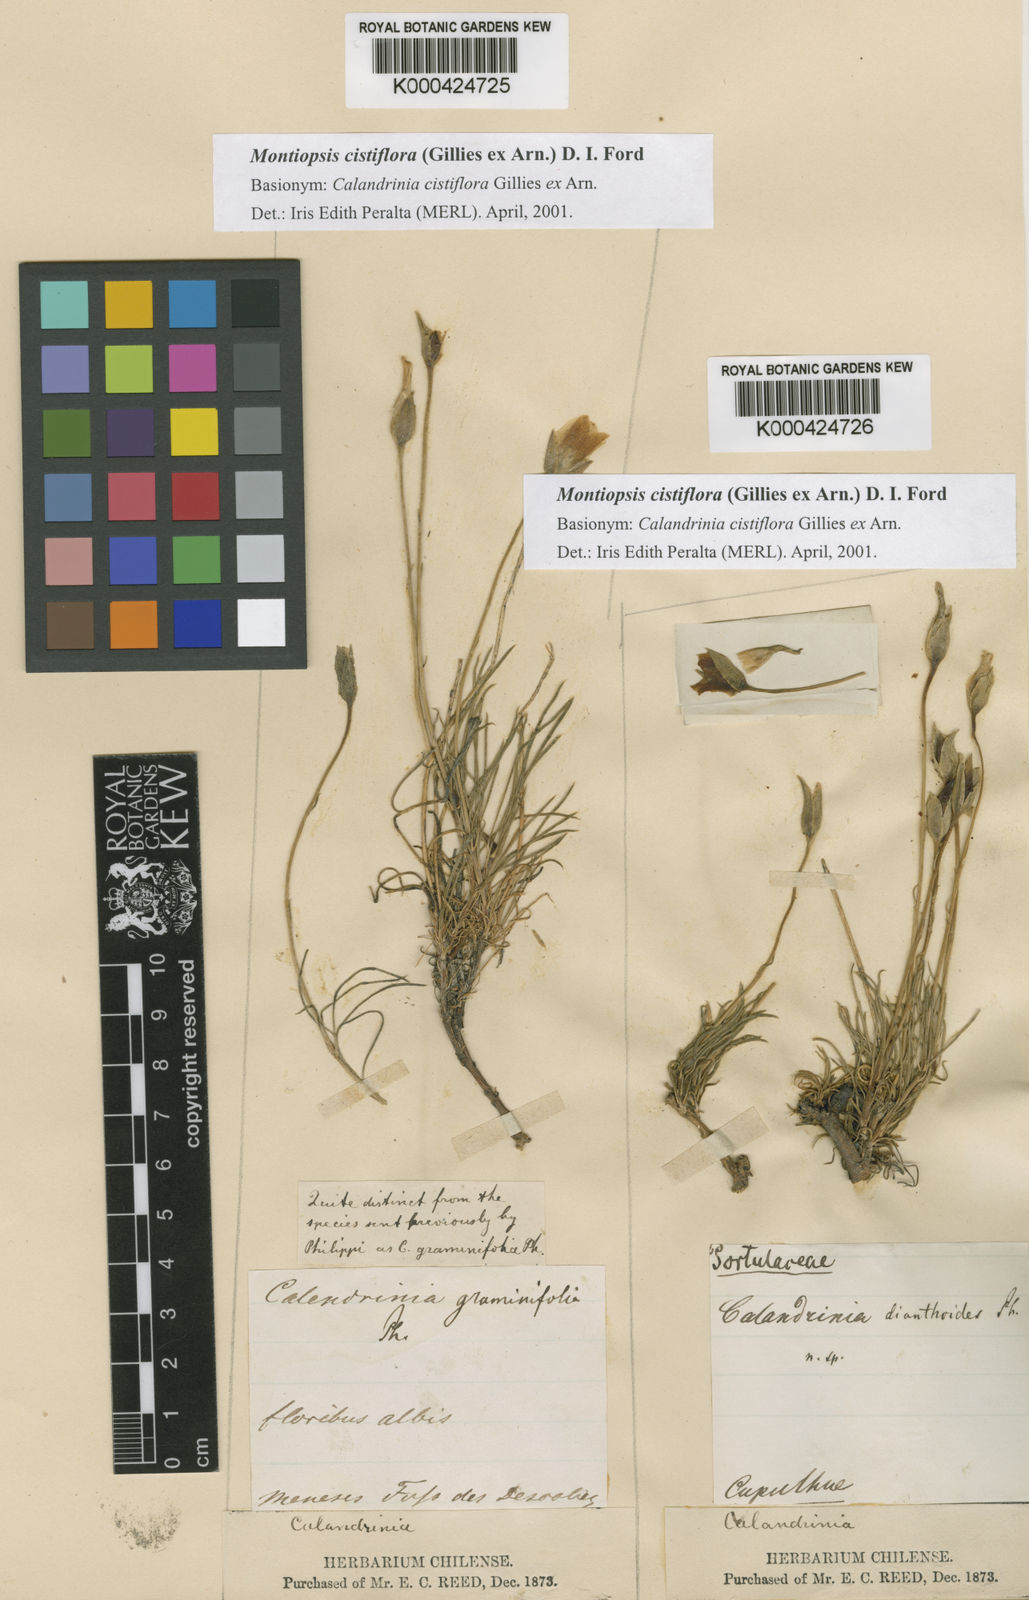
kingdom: Plantae
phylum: Tracheophyta
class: Magnoliopsida
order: Caryophyllales
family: Montiaceae
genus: Montiopsis
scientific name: Montiopsis cistiflora
